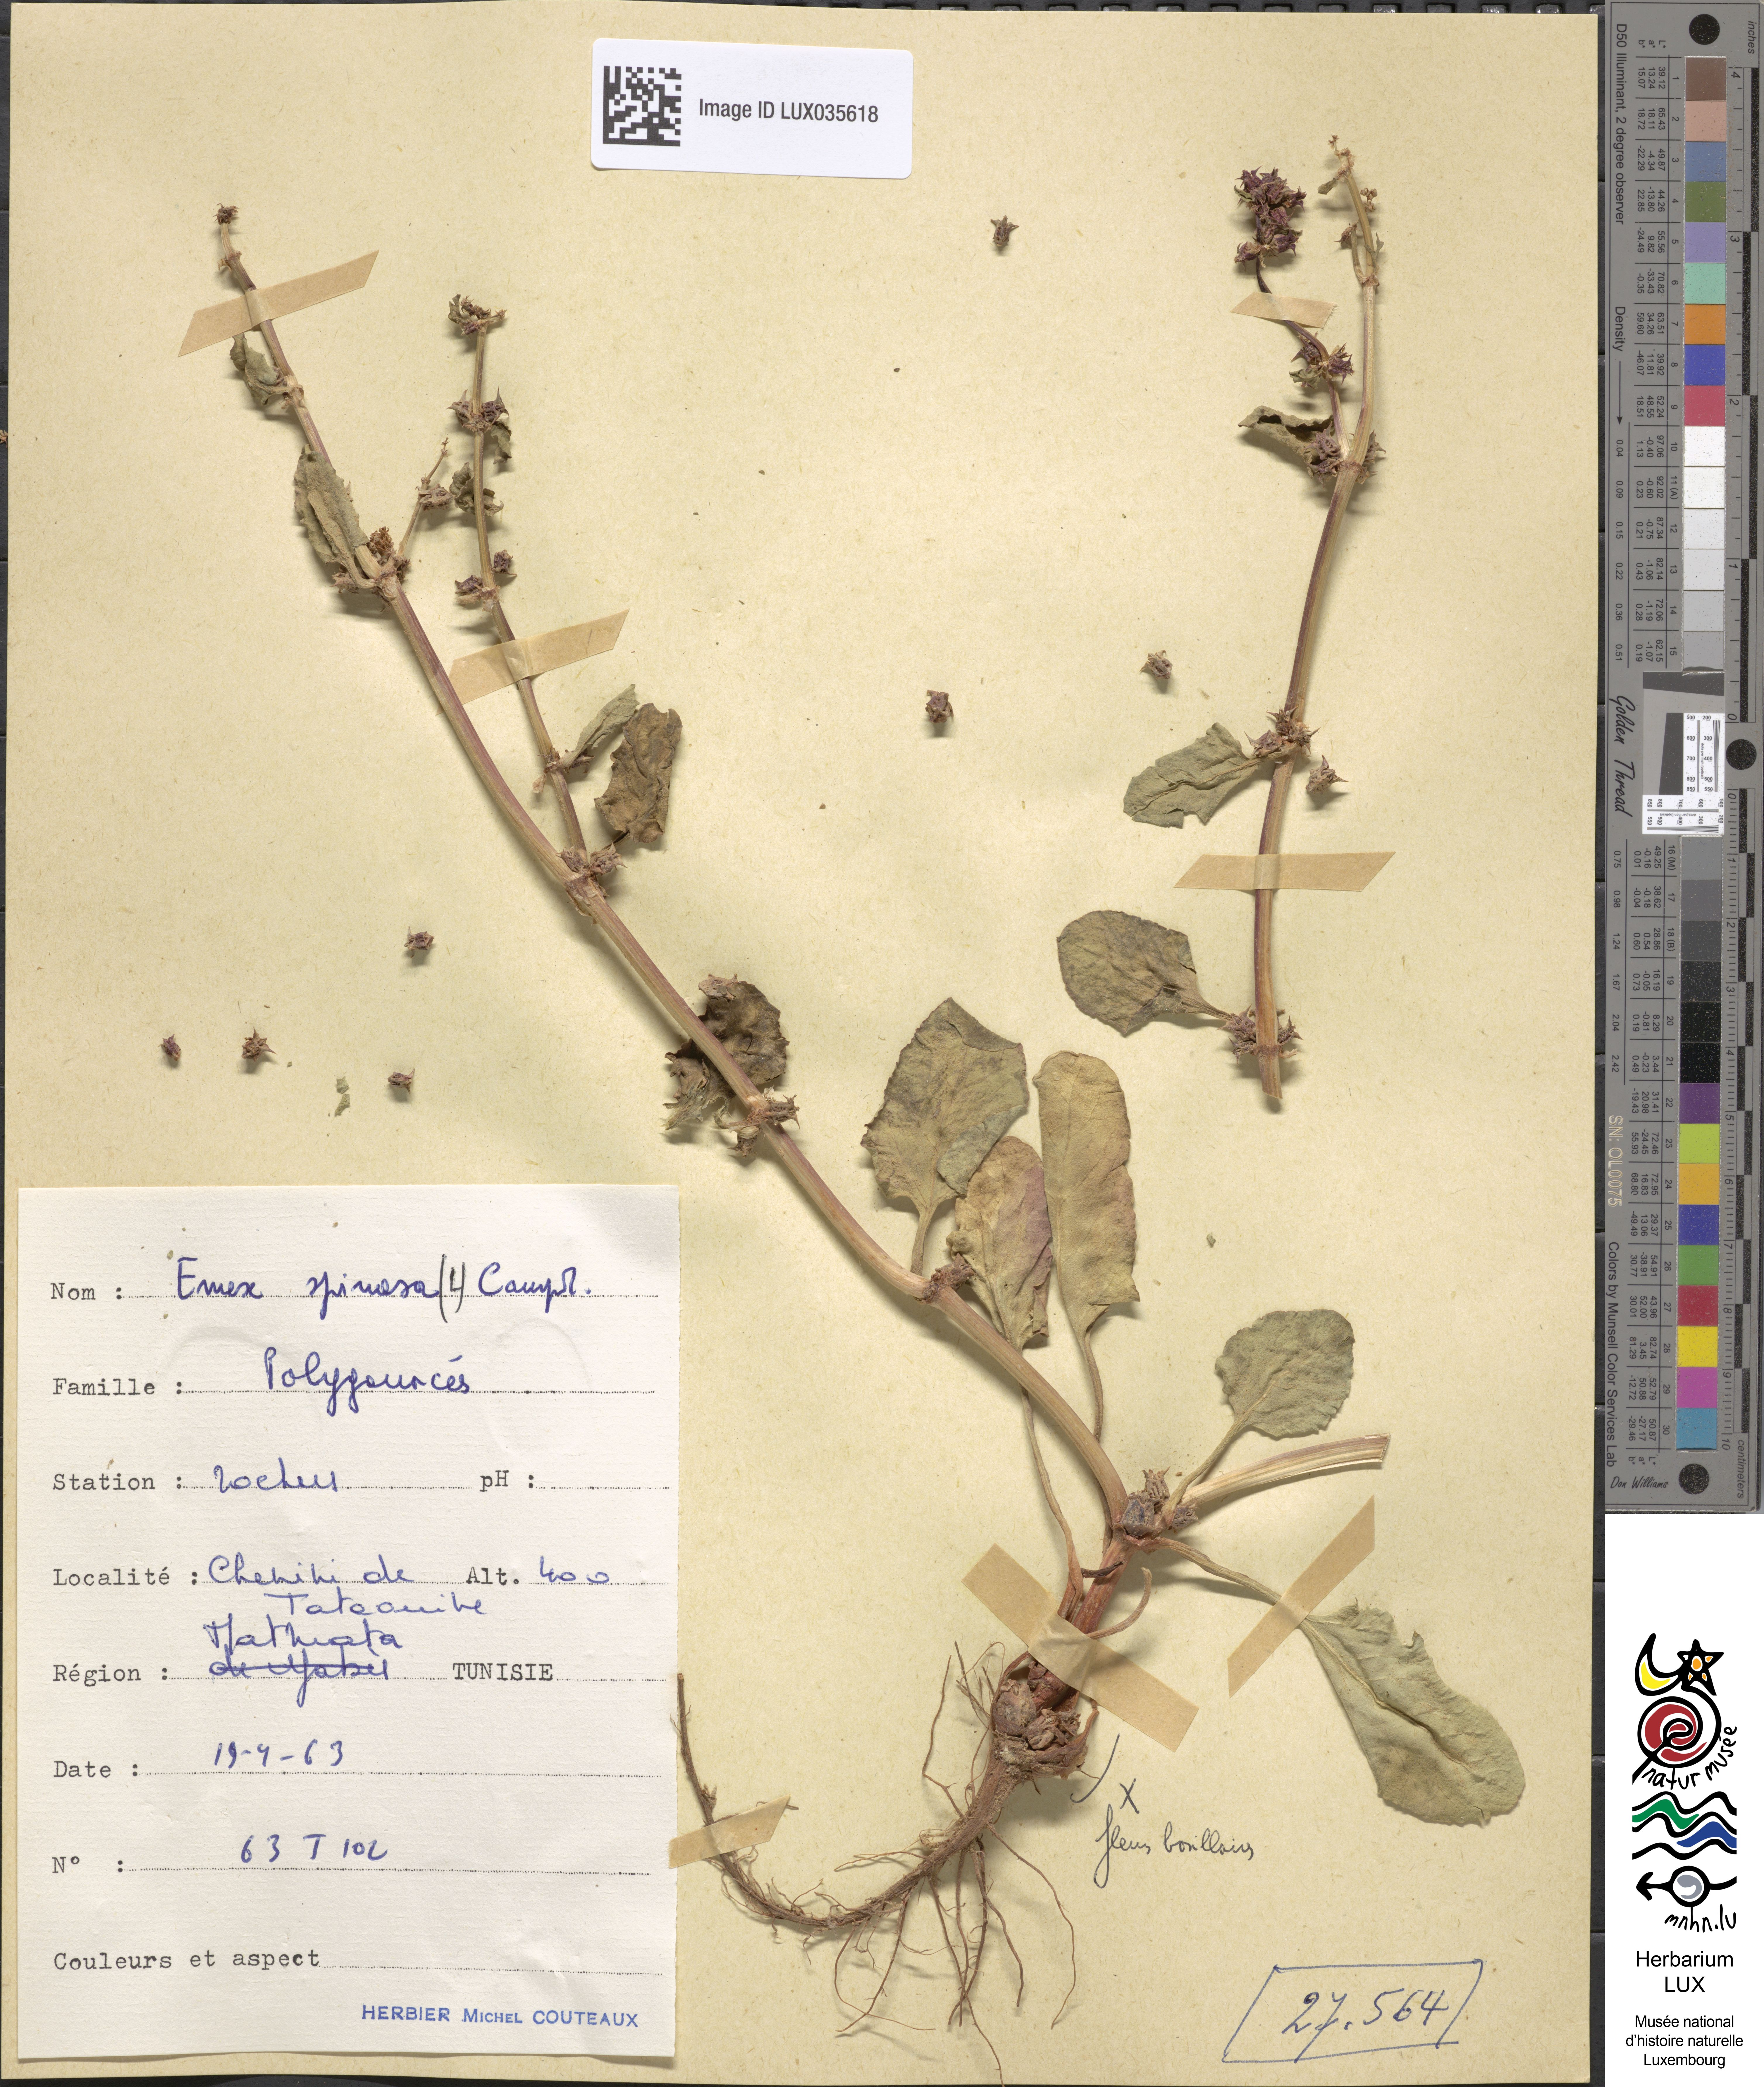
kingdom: Plantae
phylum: Tracheophyta
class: Magnoliopsida
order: Caryophyllales
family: Polygonaceae
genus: Rumex
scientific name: Rumex spinosus
